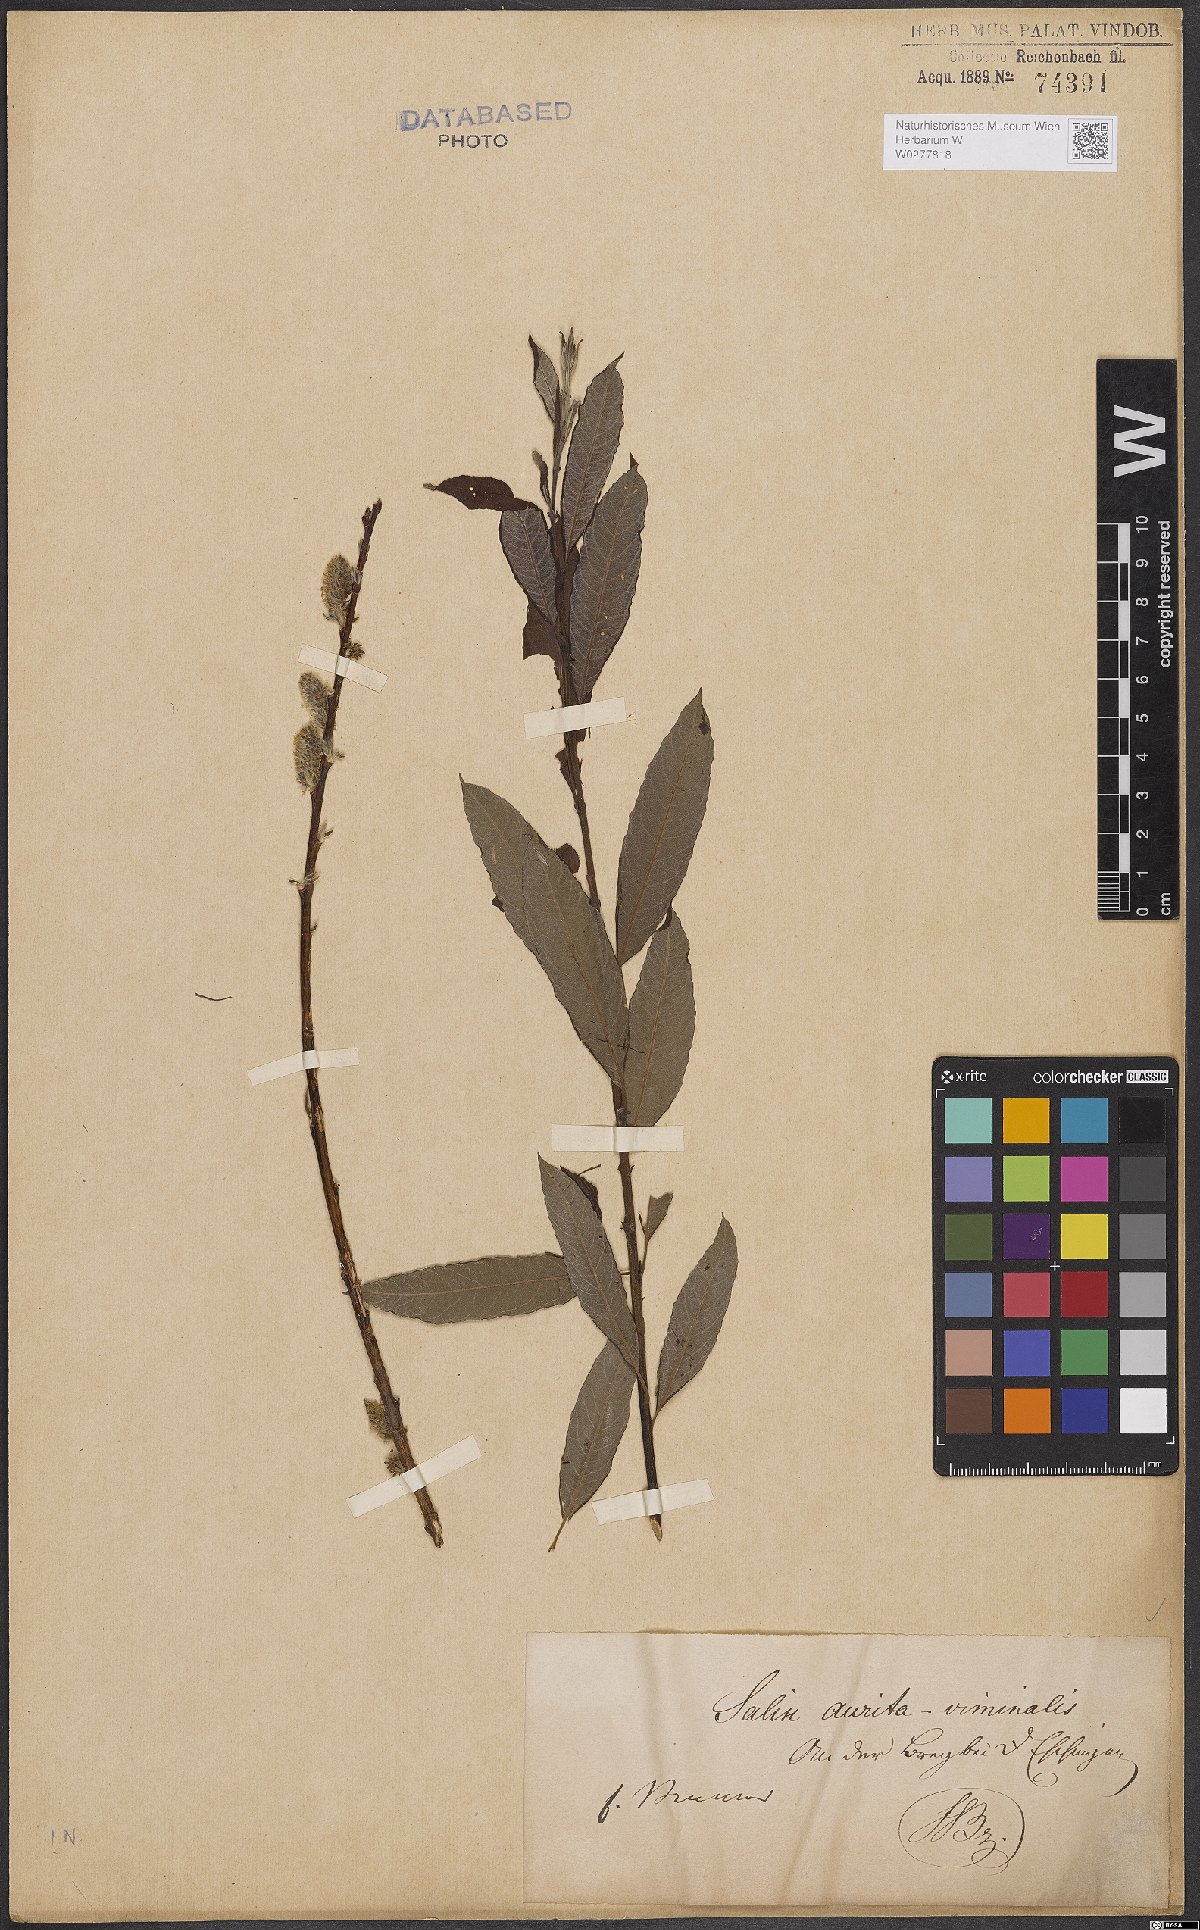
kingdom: Plantae
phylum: Tracheophyta
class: Magnoliopsida
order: Malpighiales
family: Salicaceae
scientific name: Salicaceae
